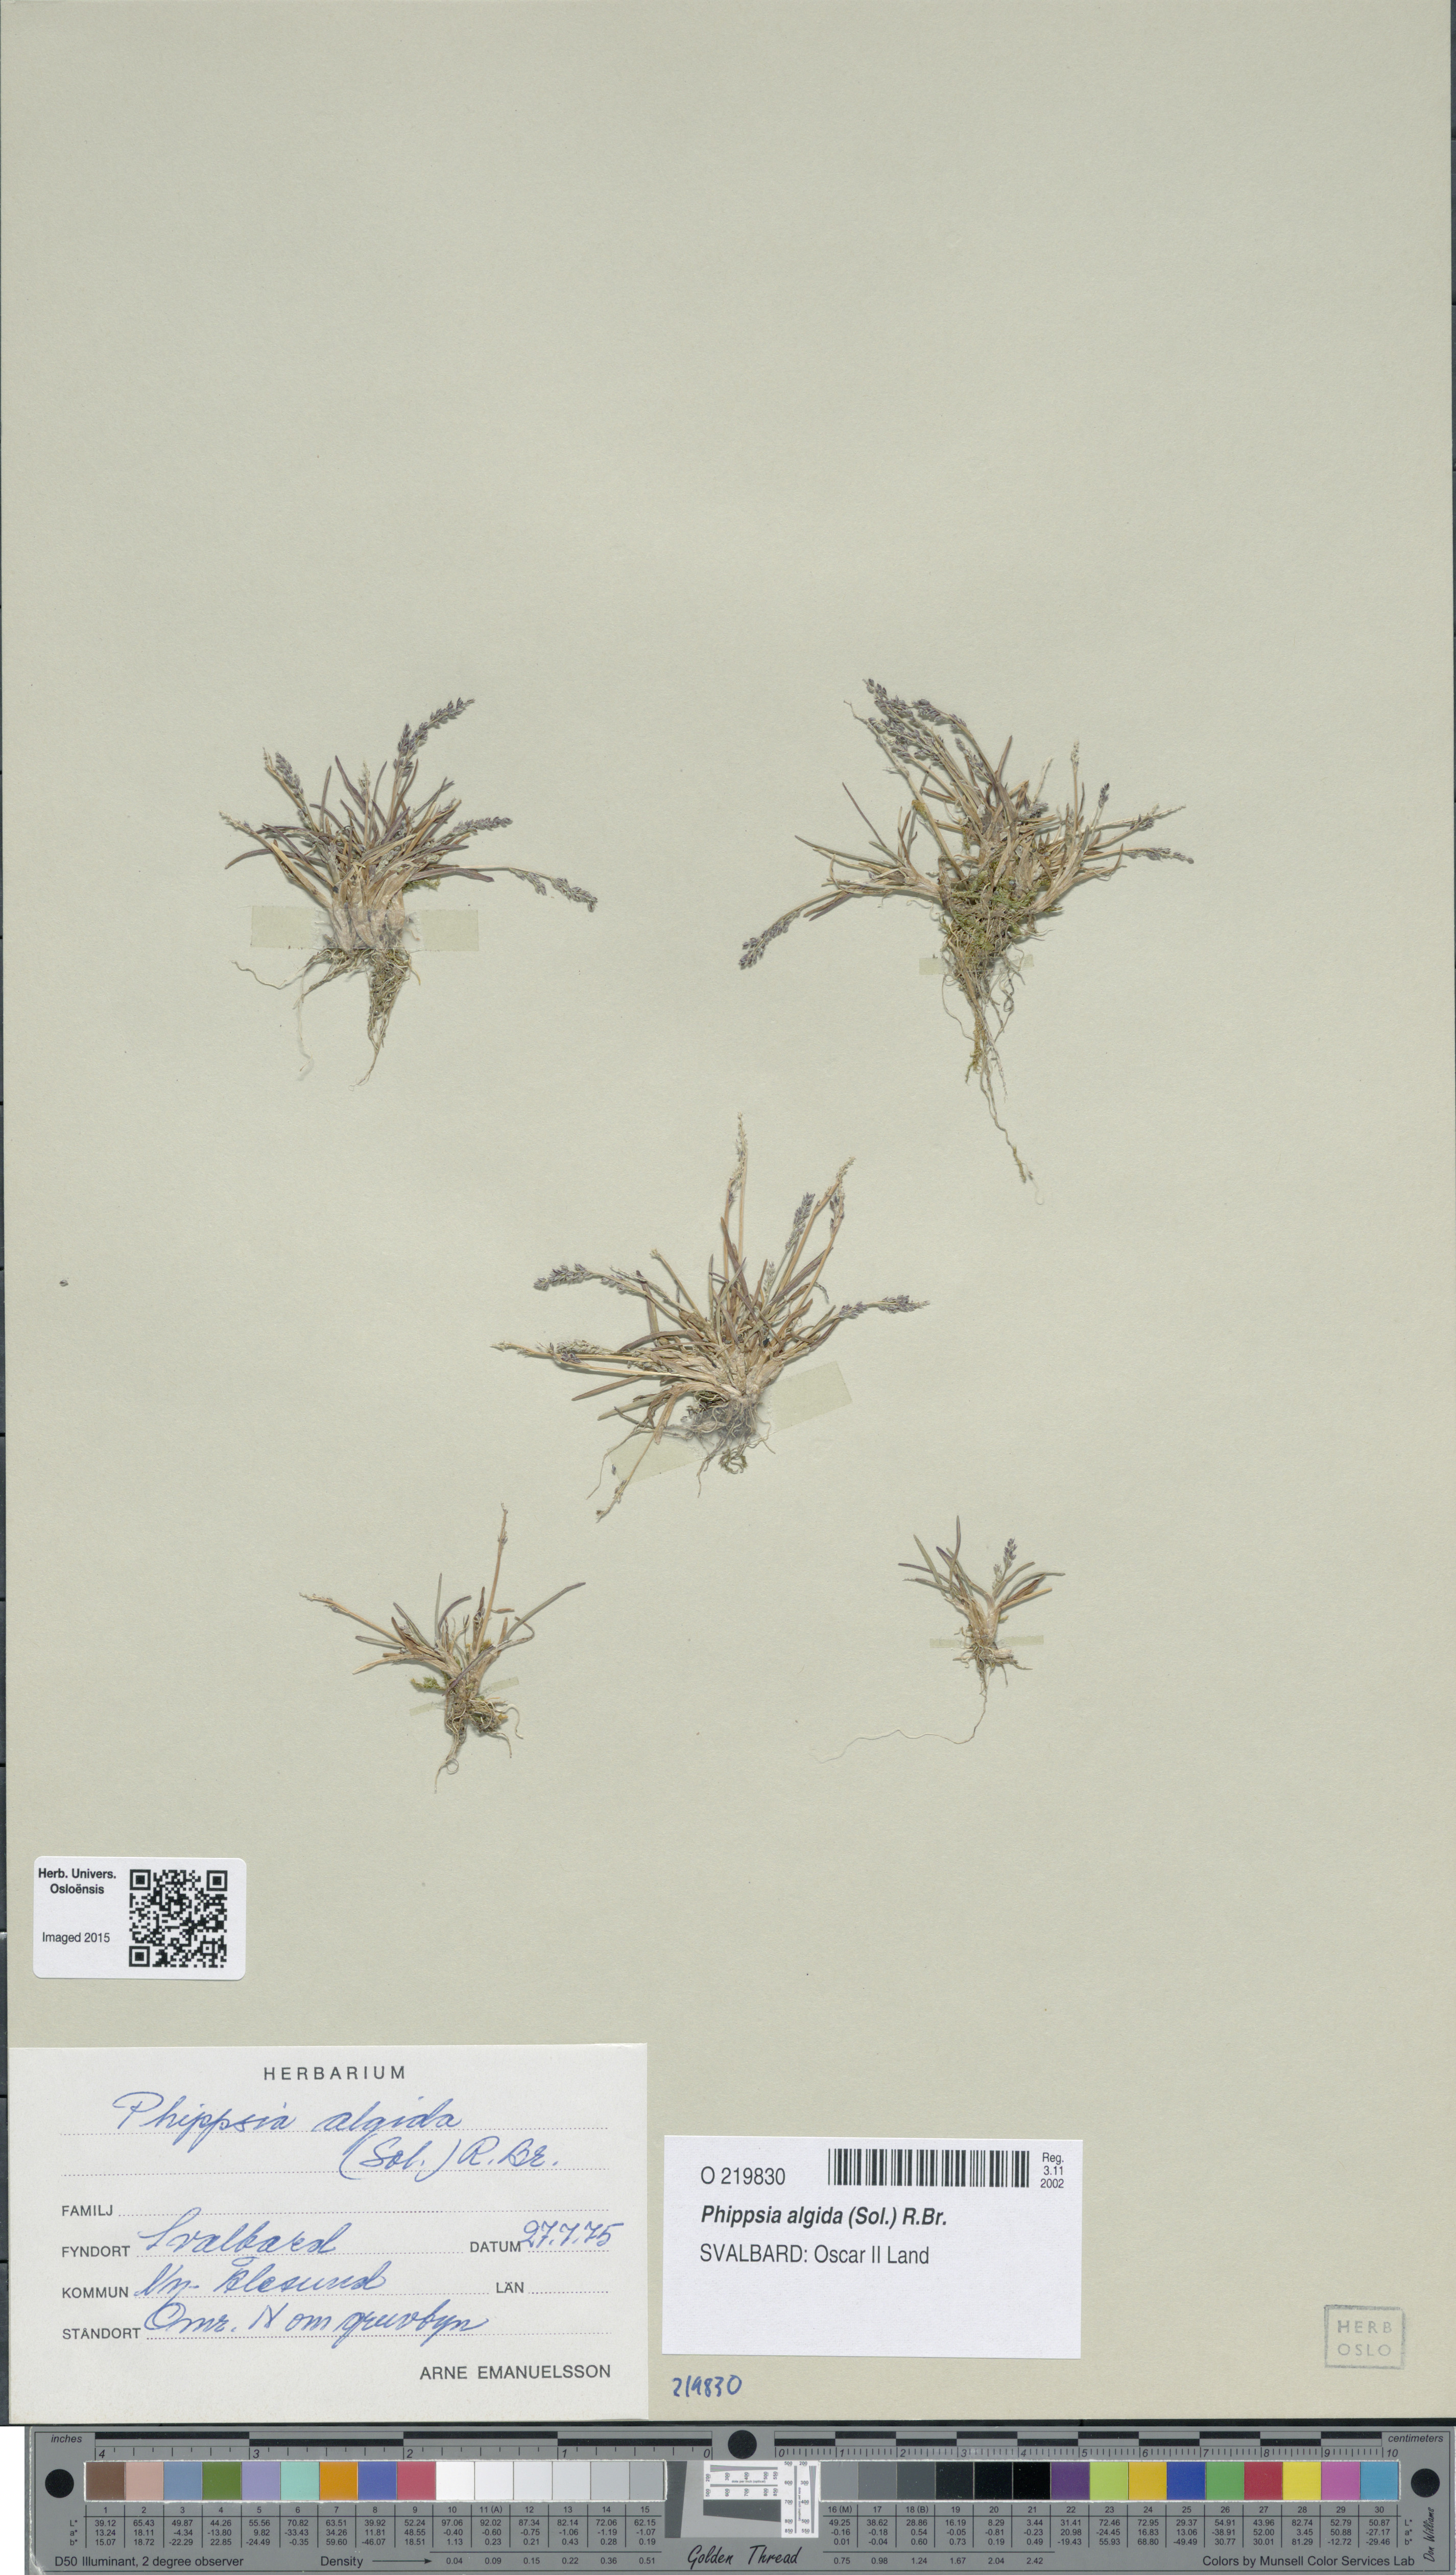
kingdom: Plantae
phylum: Tracheophyta
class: Liliopsida
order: Poales
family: Poaceae
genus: Phippsia
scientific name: Phippsia algida
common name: Ice grass
